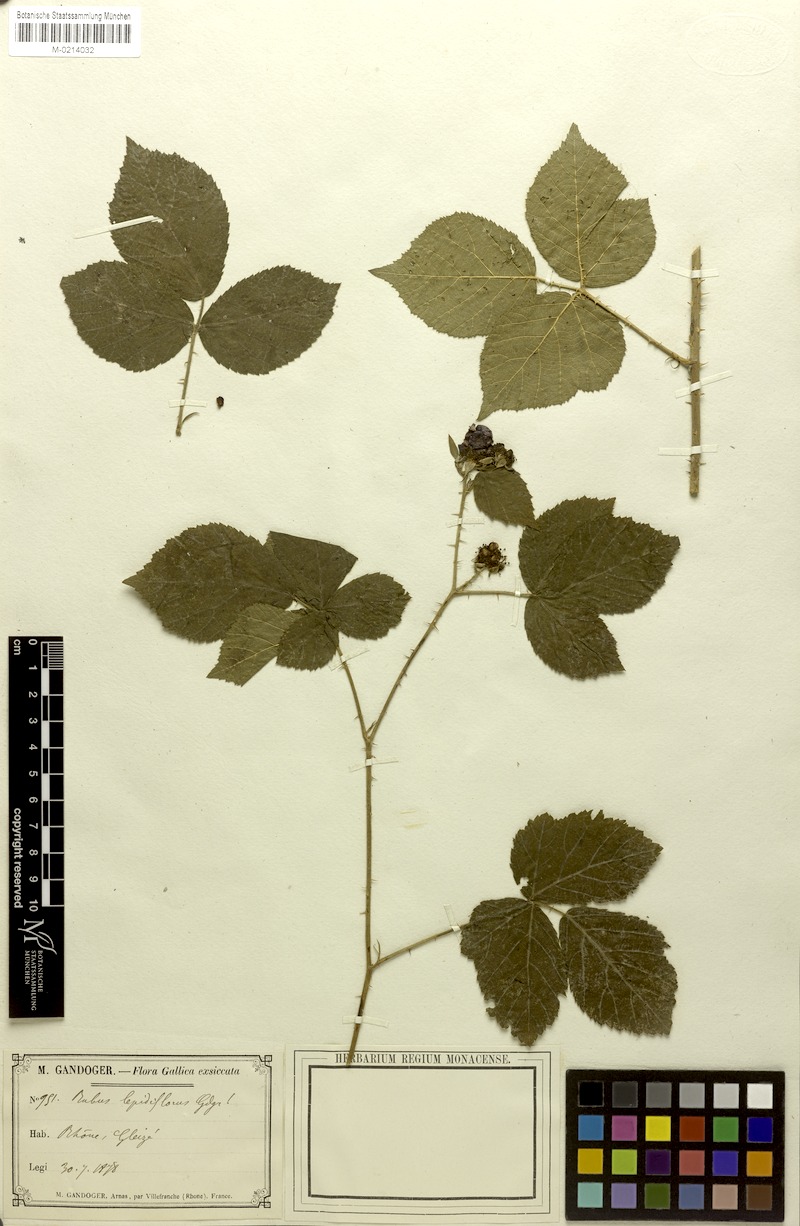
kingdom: Plantae
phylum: Tracheophyta
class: Magnoliopsida
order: Rosales
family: Rosaceae
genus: Rubus
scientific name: Rubus
